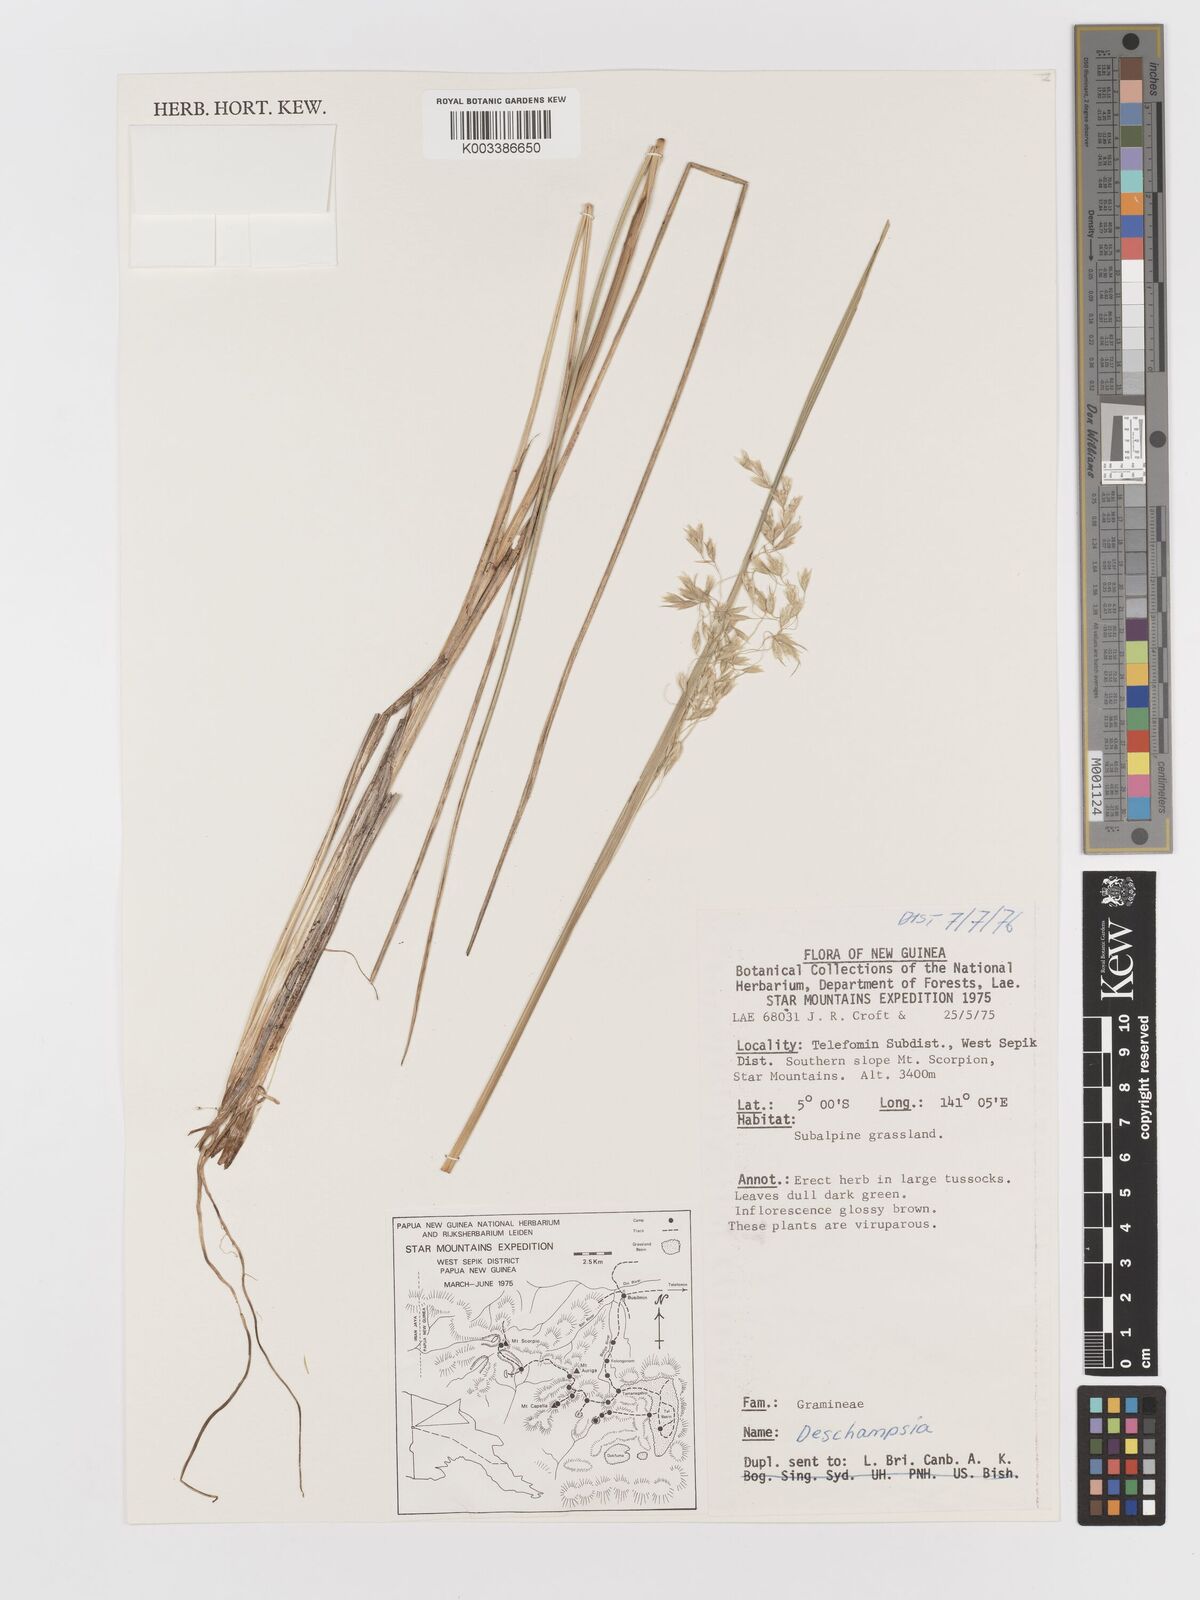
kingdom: Plantae
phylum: Tracheophyta
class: Liliopsida
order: Poales
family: Poaceae
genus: Deschampsia
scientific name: Deschampsia klossii
